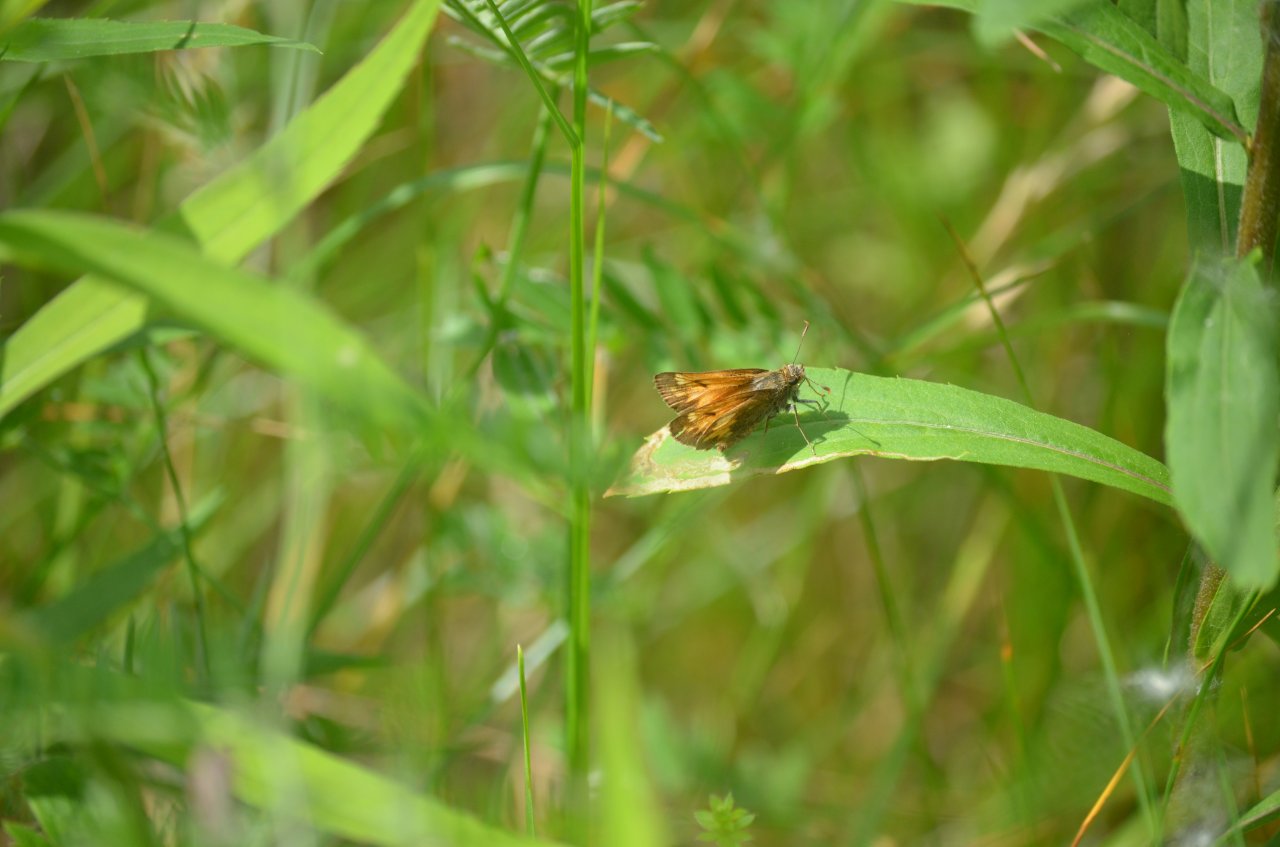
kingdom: Animalia
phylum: Arthropoda
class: Insecta
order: Lepidoptera
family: Hesperiidae
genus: Lon
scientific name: Lon hobomok
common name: Hobomok Skipper
